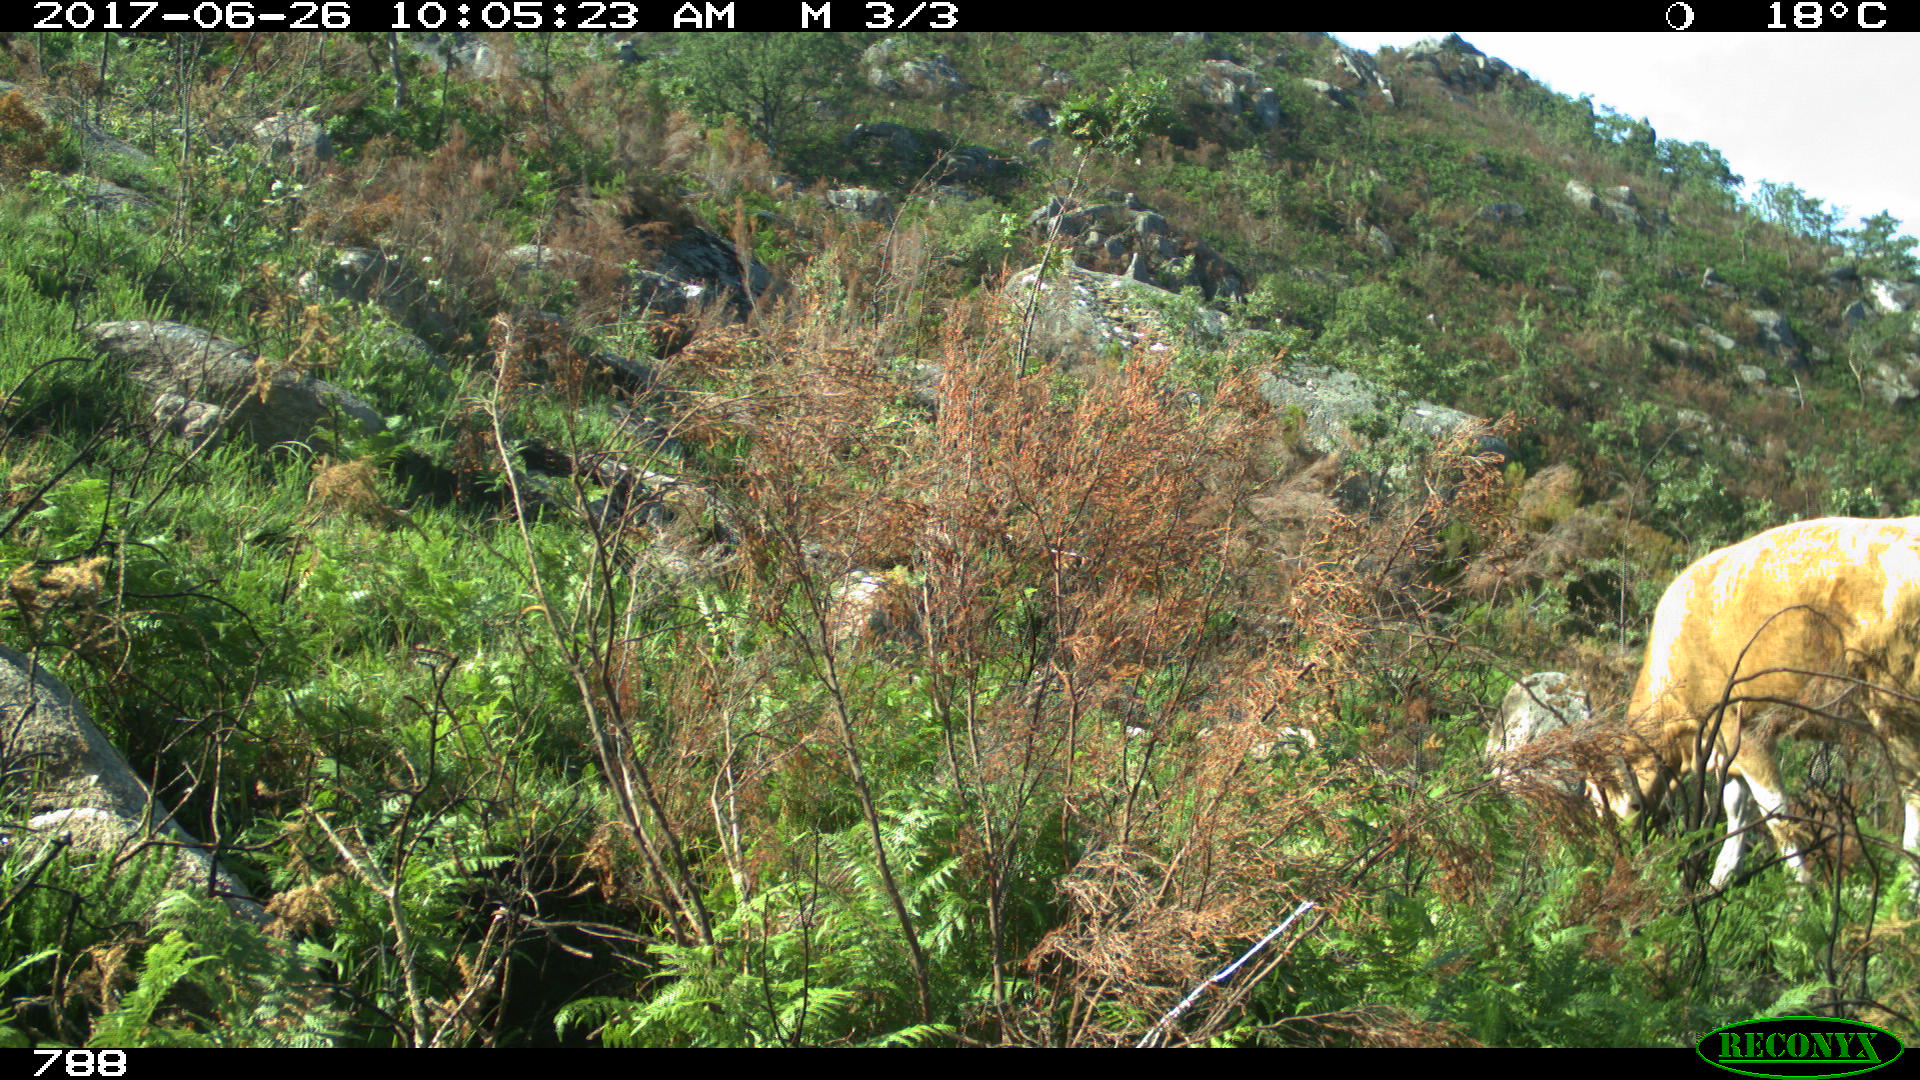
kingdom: Animalia
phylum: Chordata
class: Mammalia
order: Artiodactyla
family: Bovidae
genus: Bos
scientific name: Bos taurus
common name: Domesticated cattle
